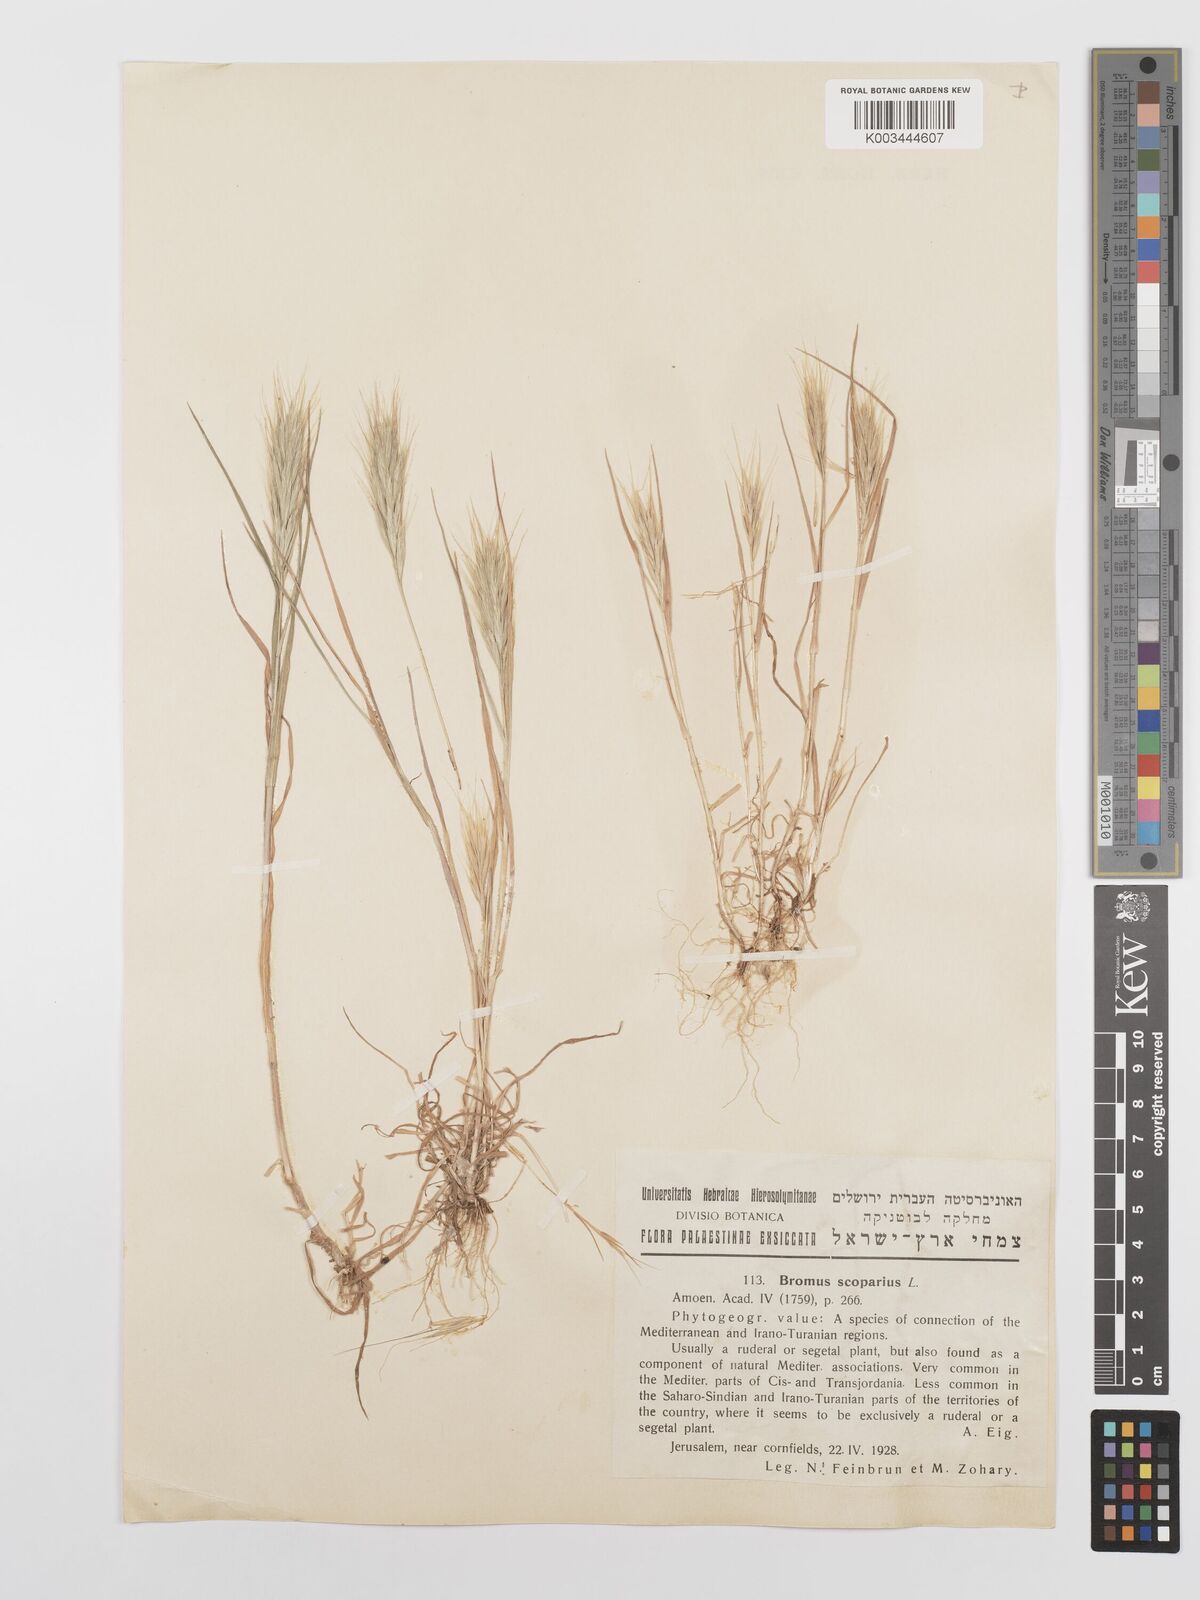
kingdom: Plantae
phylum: Tracheophyta
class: Liliopsida
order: Poales
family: Poaceae
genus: Bromus
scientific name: Bromus scoparius
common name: Broom brome
